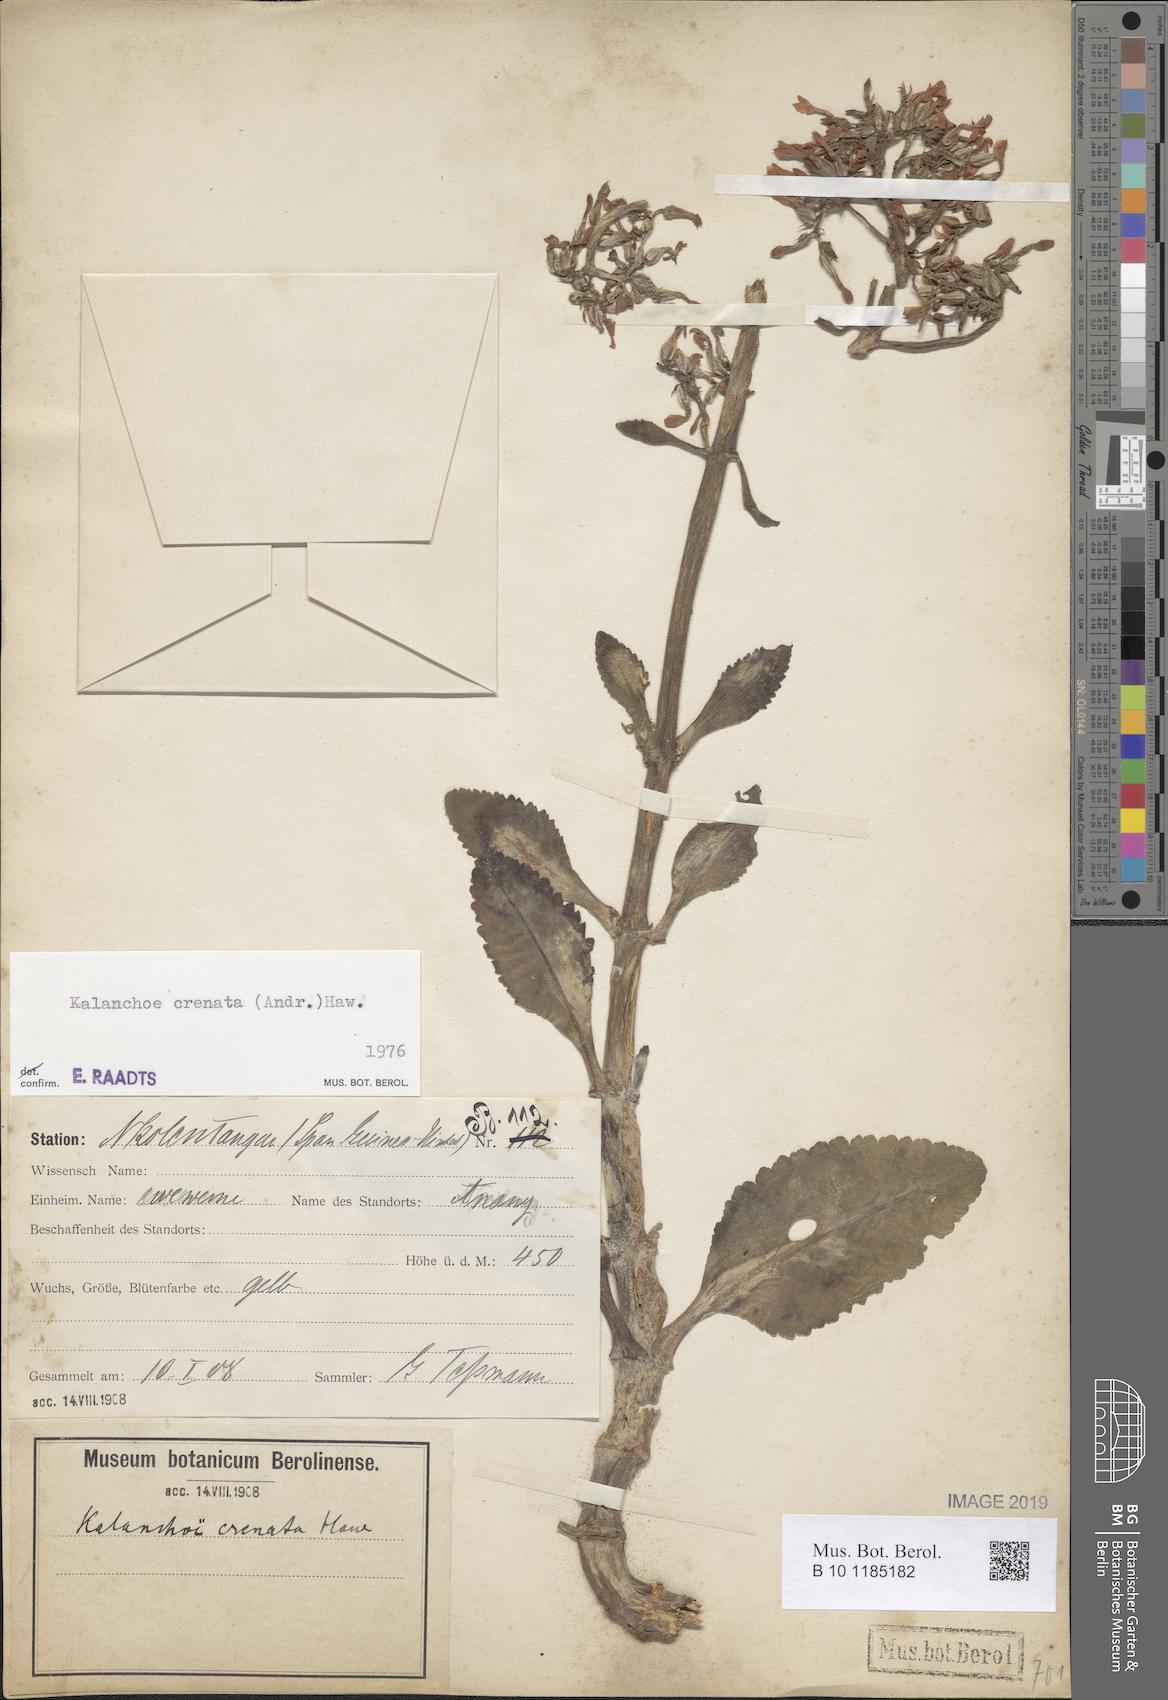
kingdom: Plantae
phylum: Tracheophyta
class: Magnoliopsida
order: Saxifragales
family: Crassulaceae
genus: Kalanchoe
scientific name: Kalanchoe crenata
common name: Neverdie
